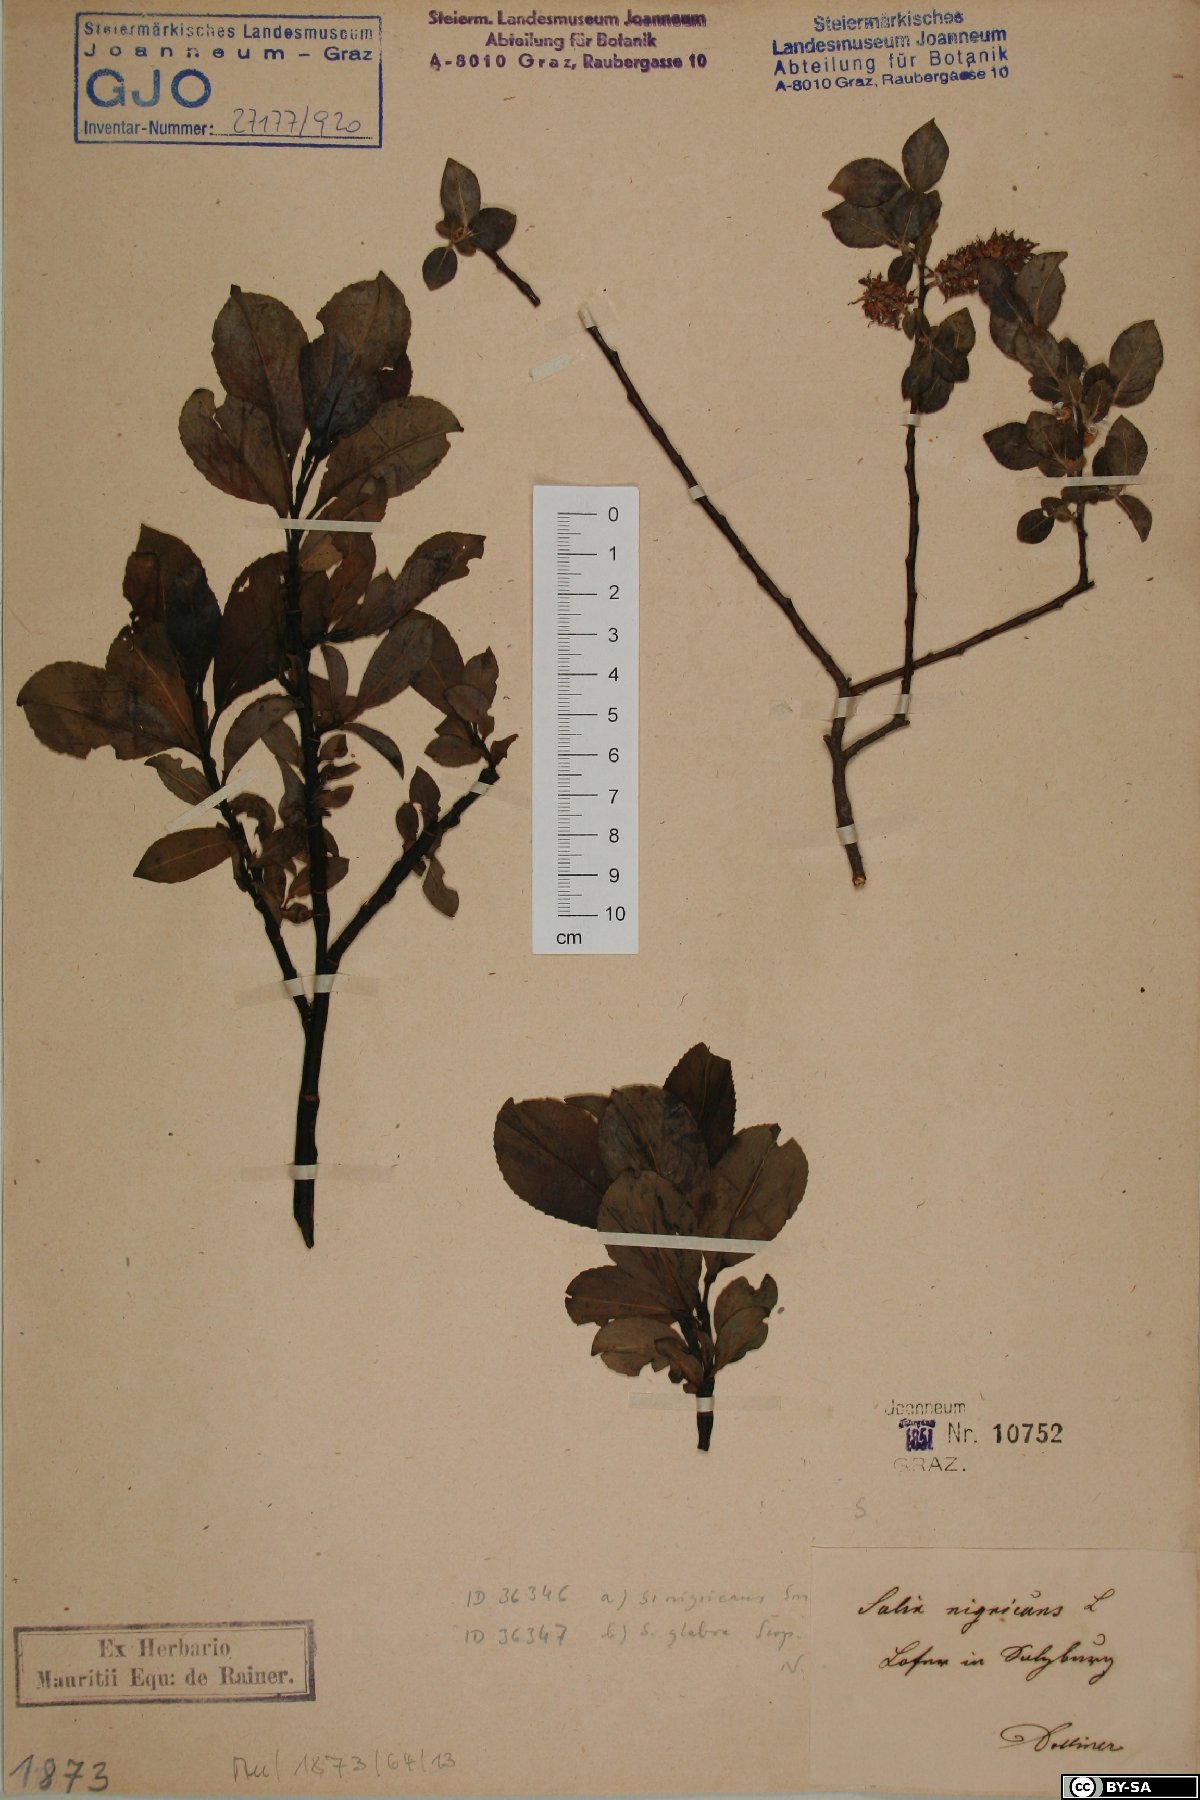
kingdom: Plantae
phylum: Tracheophyta
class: Magnoliopsida
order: Malpighiales
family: Salicaceae
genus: Salix
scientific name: Salix myrsinifolia
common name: Dark-leaved willow
